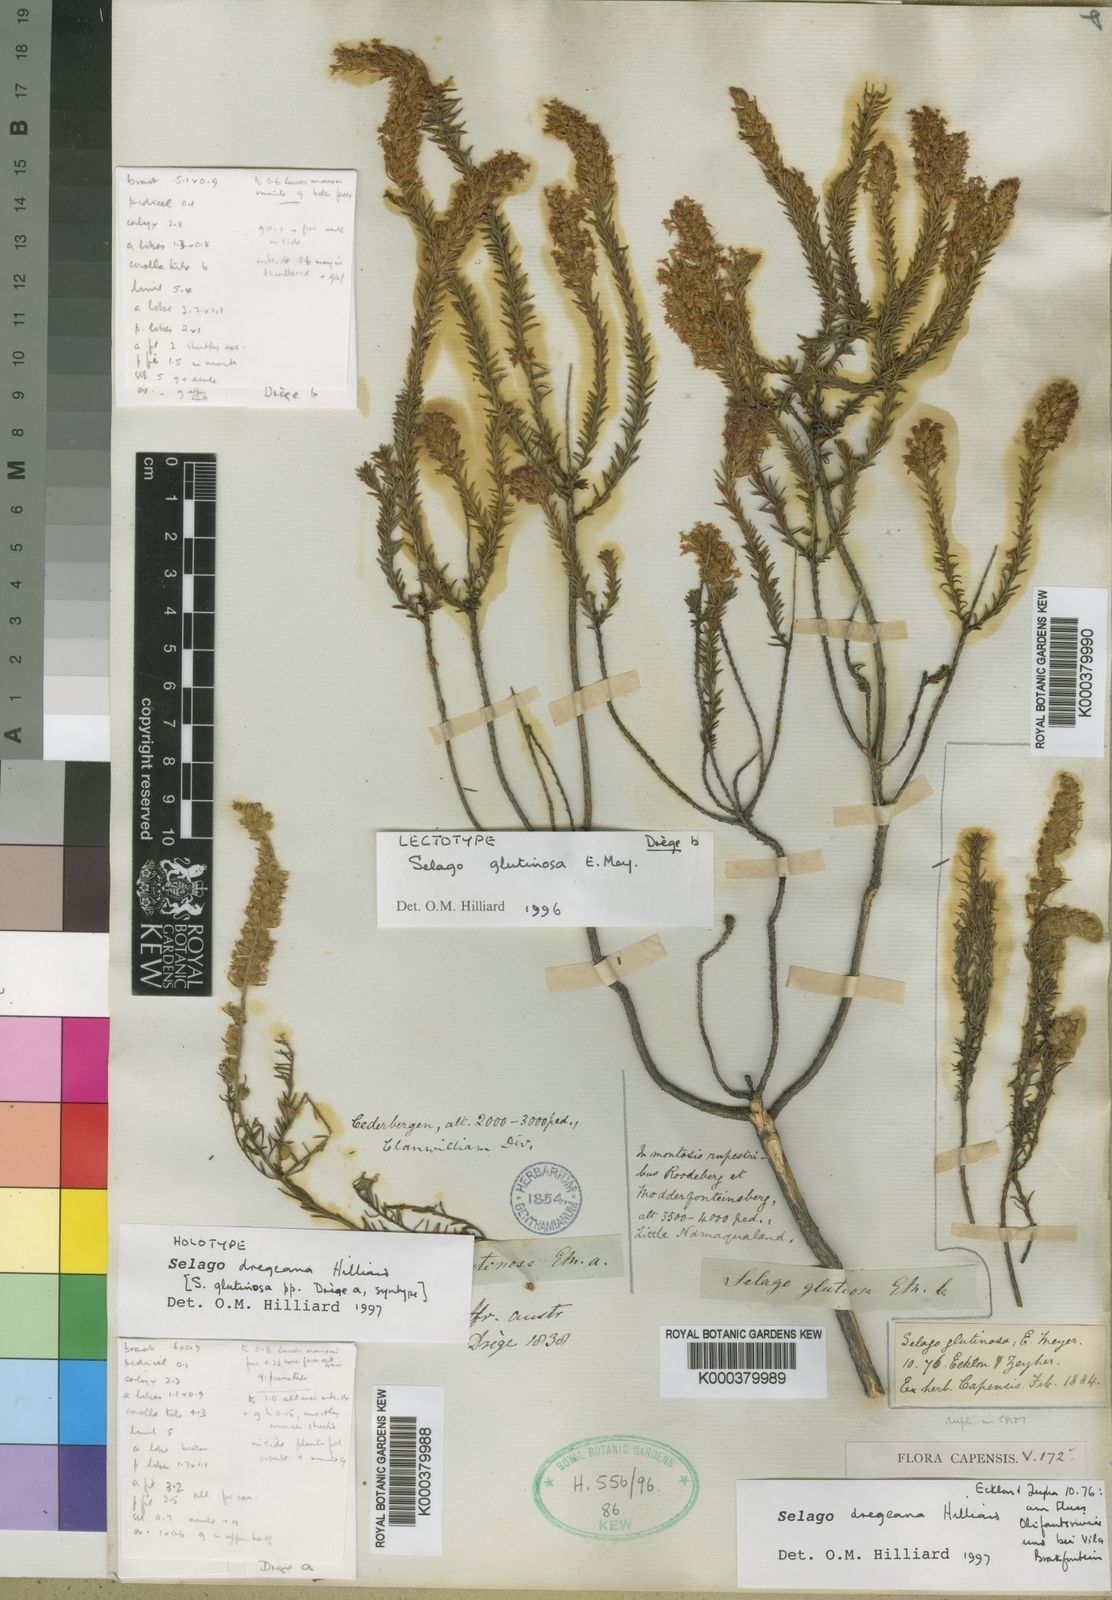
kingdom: Plantae
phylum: Tracheophyta
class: Magnoliopsida
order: Lamiales
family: Scrophulariaceae
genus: Selago
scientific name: Selago glutinosa
